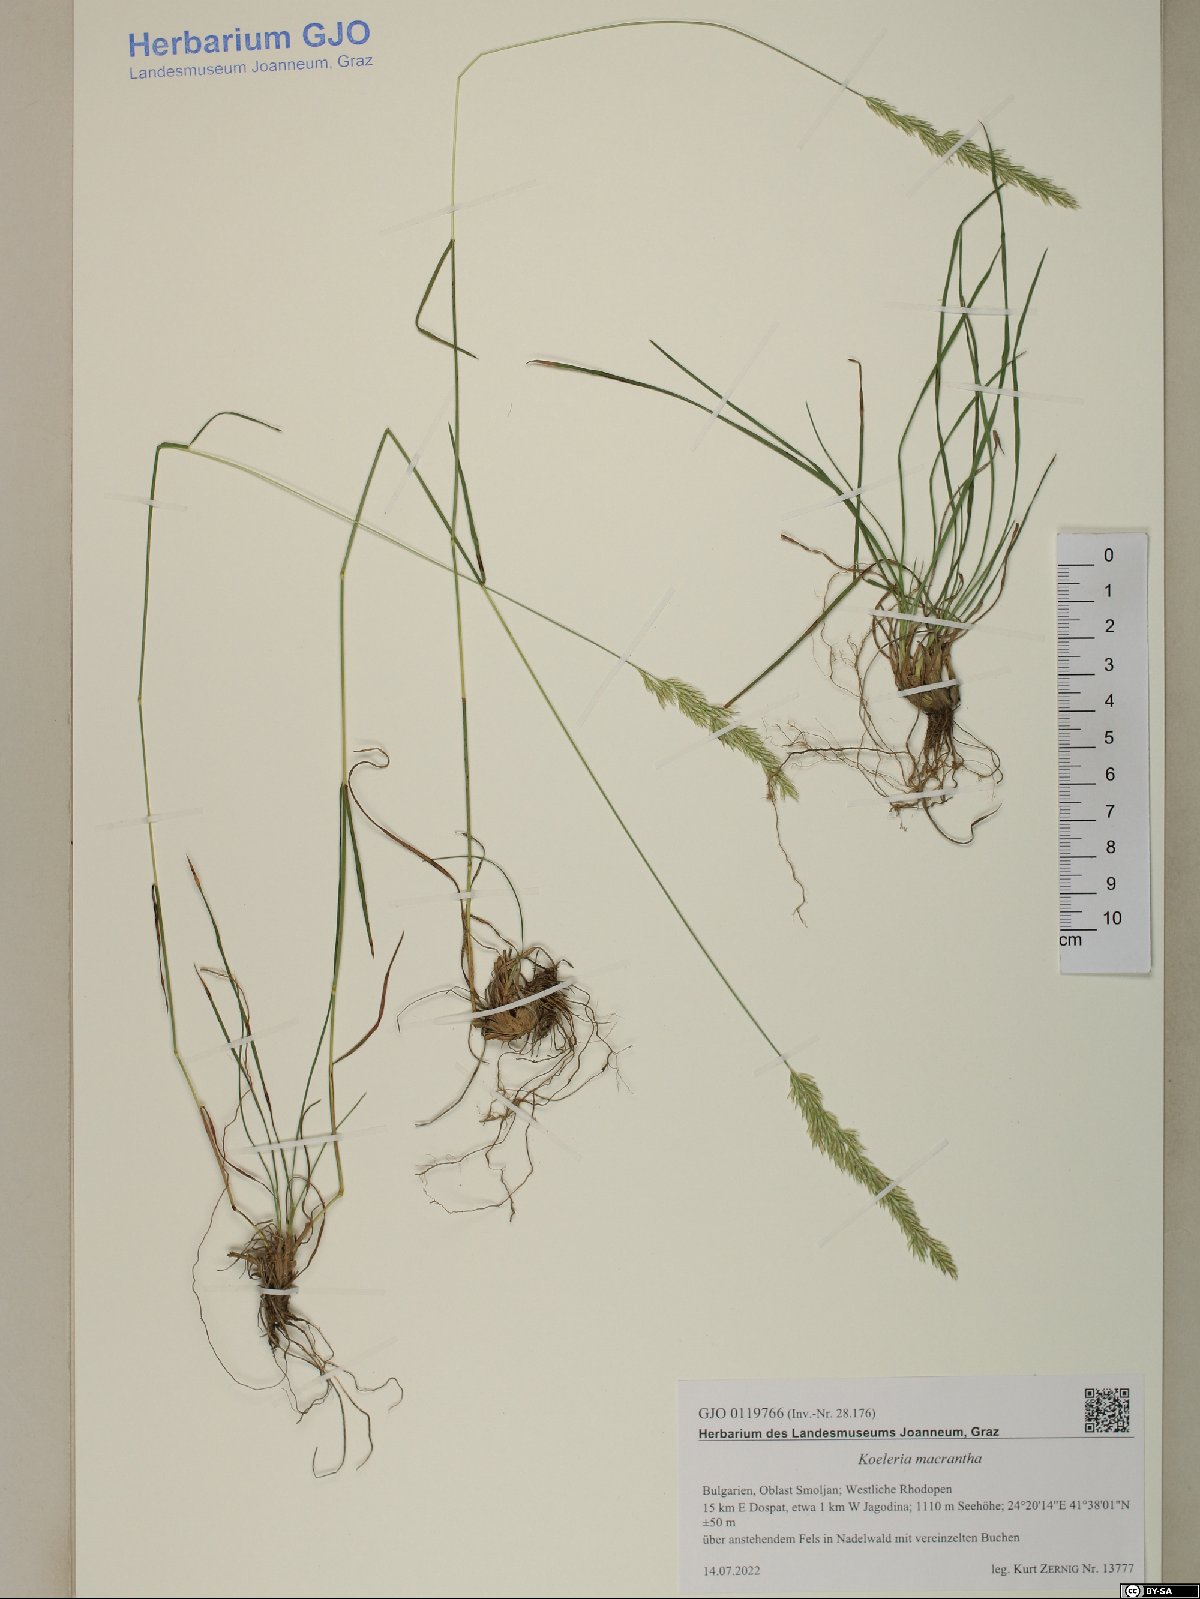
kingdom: Plantae
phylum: Tracheophyta
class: Liliopsida
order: Poales
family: Poaceae
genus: Koeleria
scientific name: Koeleria macrantha
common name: Crested hair-grass
